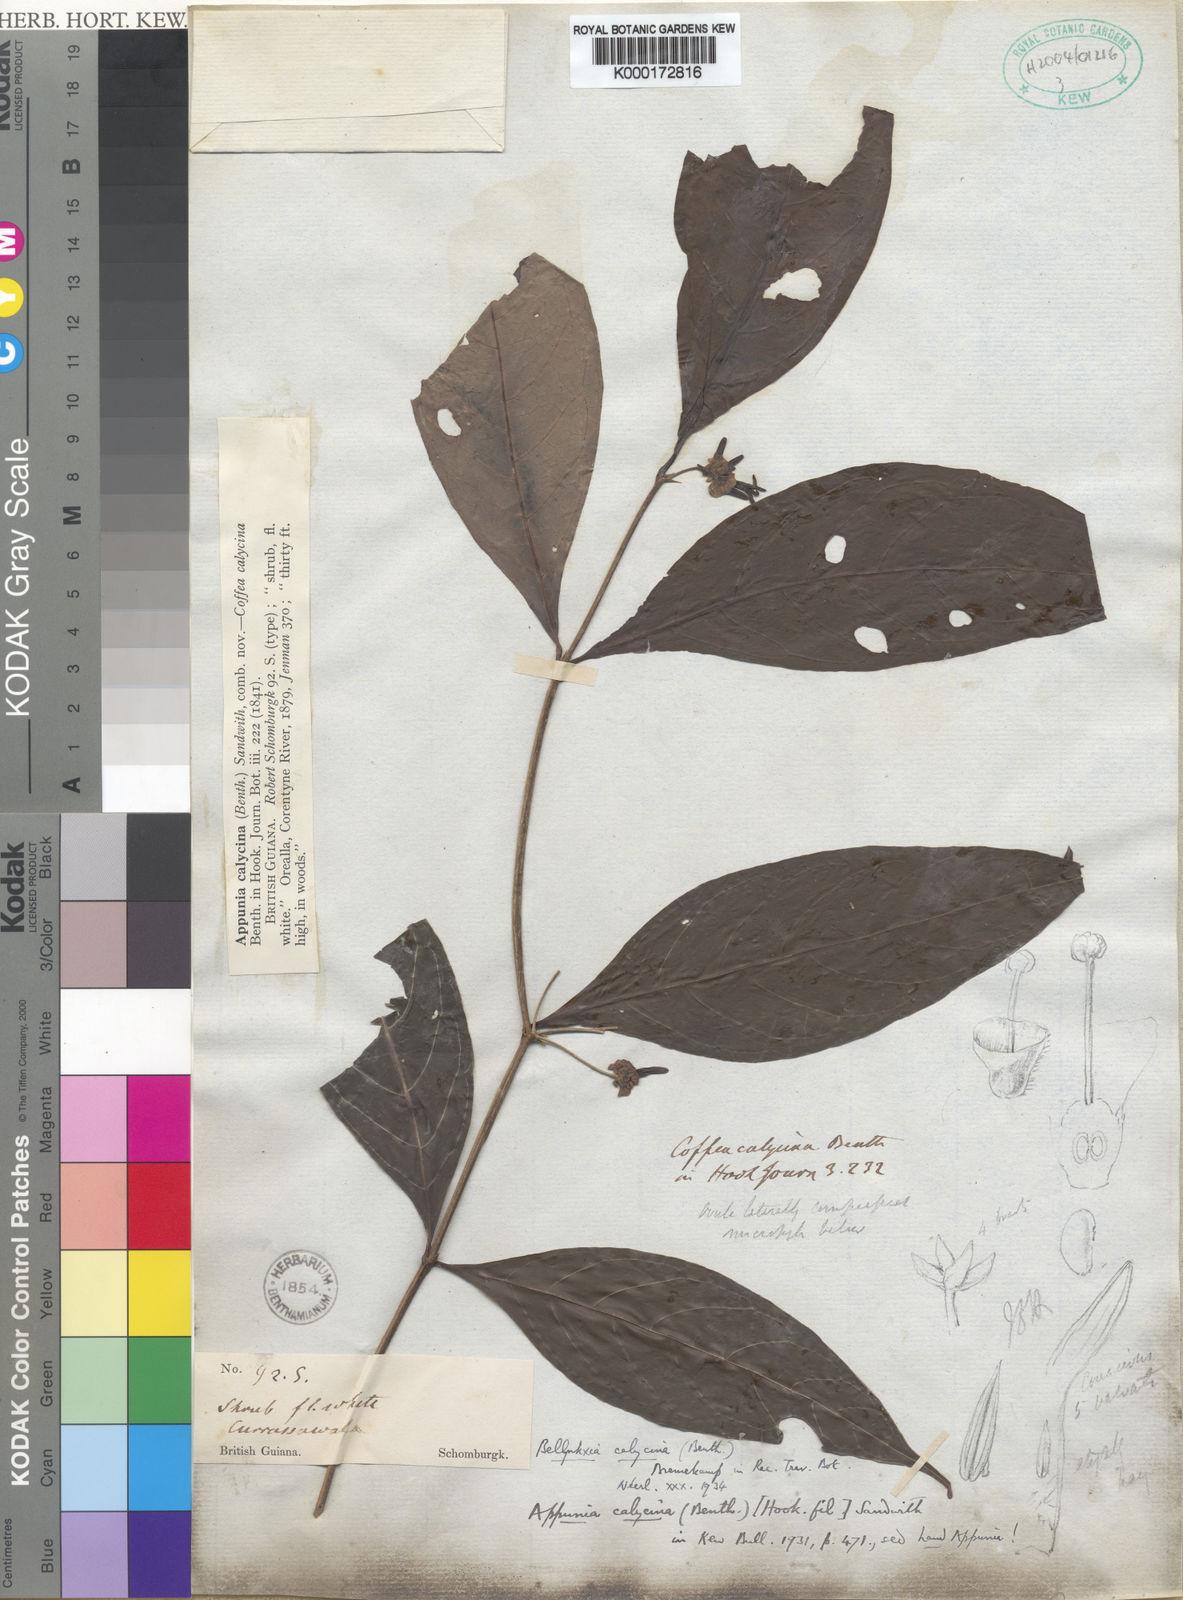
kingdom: Plantae
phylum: Tracheophyta
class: Magnoliopsida
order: Gentianales
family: Rubiaceae
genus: Appunia
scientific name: Appunia calycina
